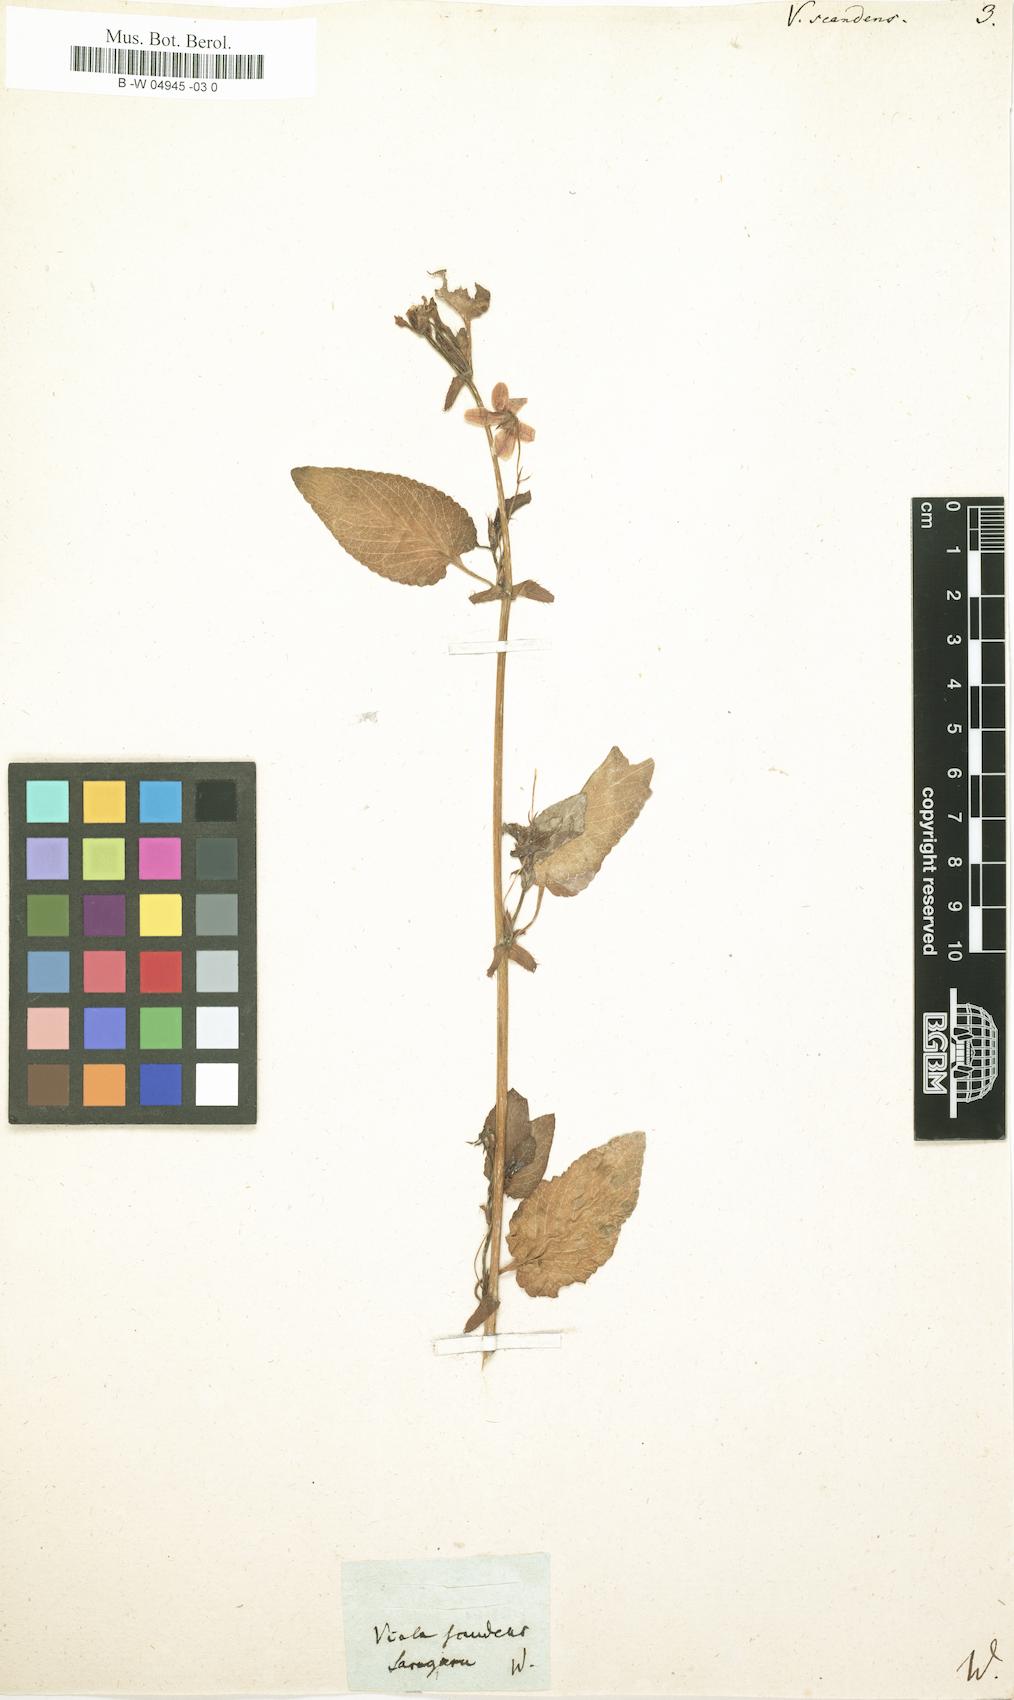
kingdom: Plantae
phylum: Tracheophyta
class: Magnoliopsida
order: Malpighiales
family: Violaceae
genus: Viola
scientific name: Viola scandens
